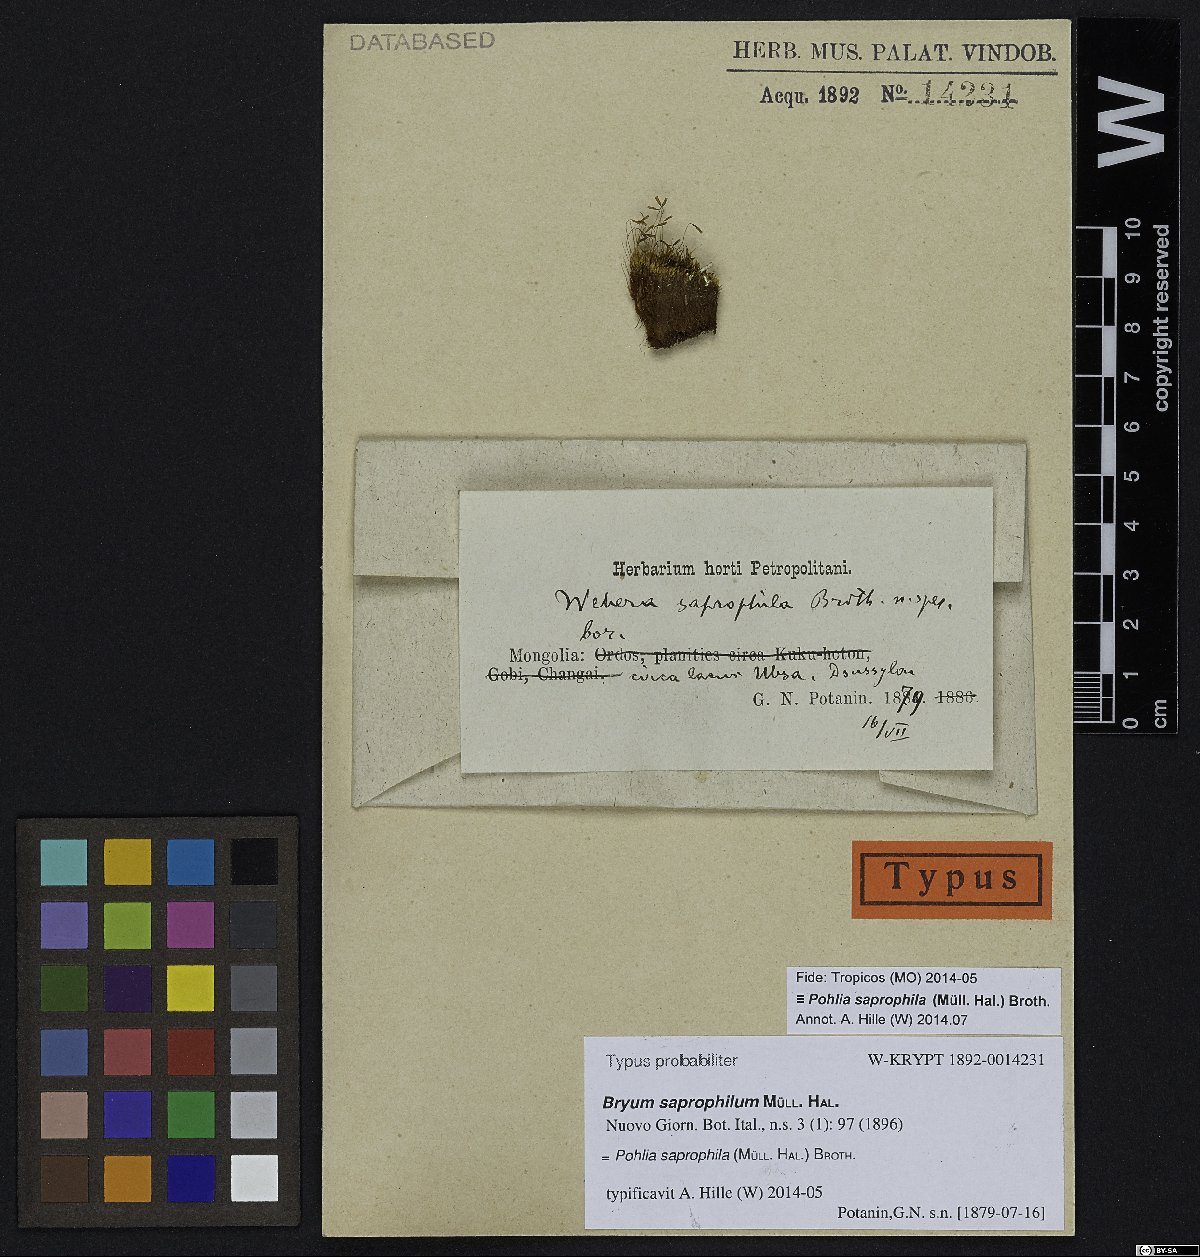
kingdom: Plantae
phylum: Bryophyta
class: Bryopsida
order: Bryales
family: Mniaceae
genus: Pohlia
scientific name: Pohlia saprophila
